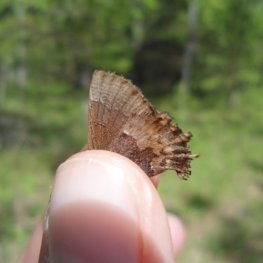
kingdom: Animalia
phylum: Arthropoda
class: Insecta
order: Lepidoptera
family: Lycaenidae
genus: Incisalia
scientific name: Incisalia henrici
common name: Henry's Elfin
